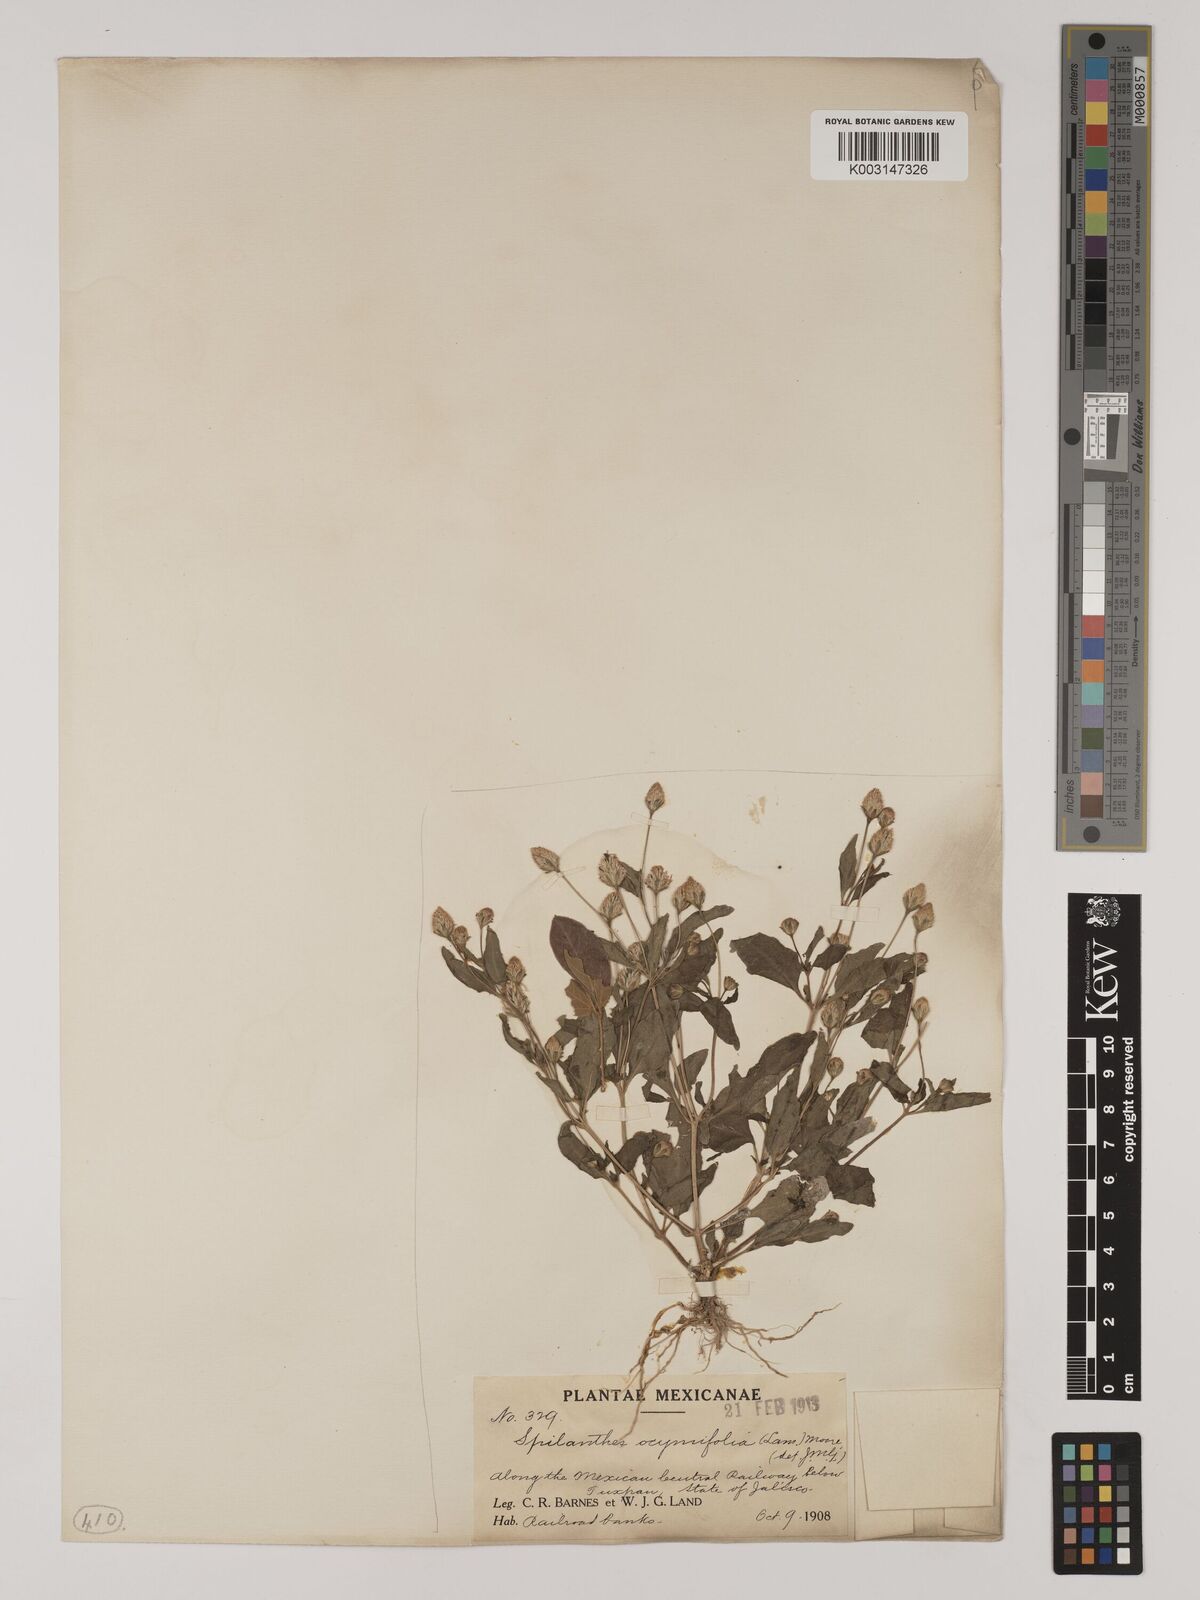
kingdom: Plantae
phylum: Tracheophyta
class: Magnoliopsida
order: Asterales
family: Asteraceae
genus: Acmella
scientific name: Acmella radicans
